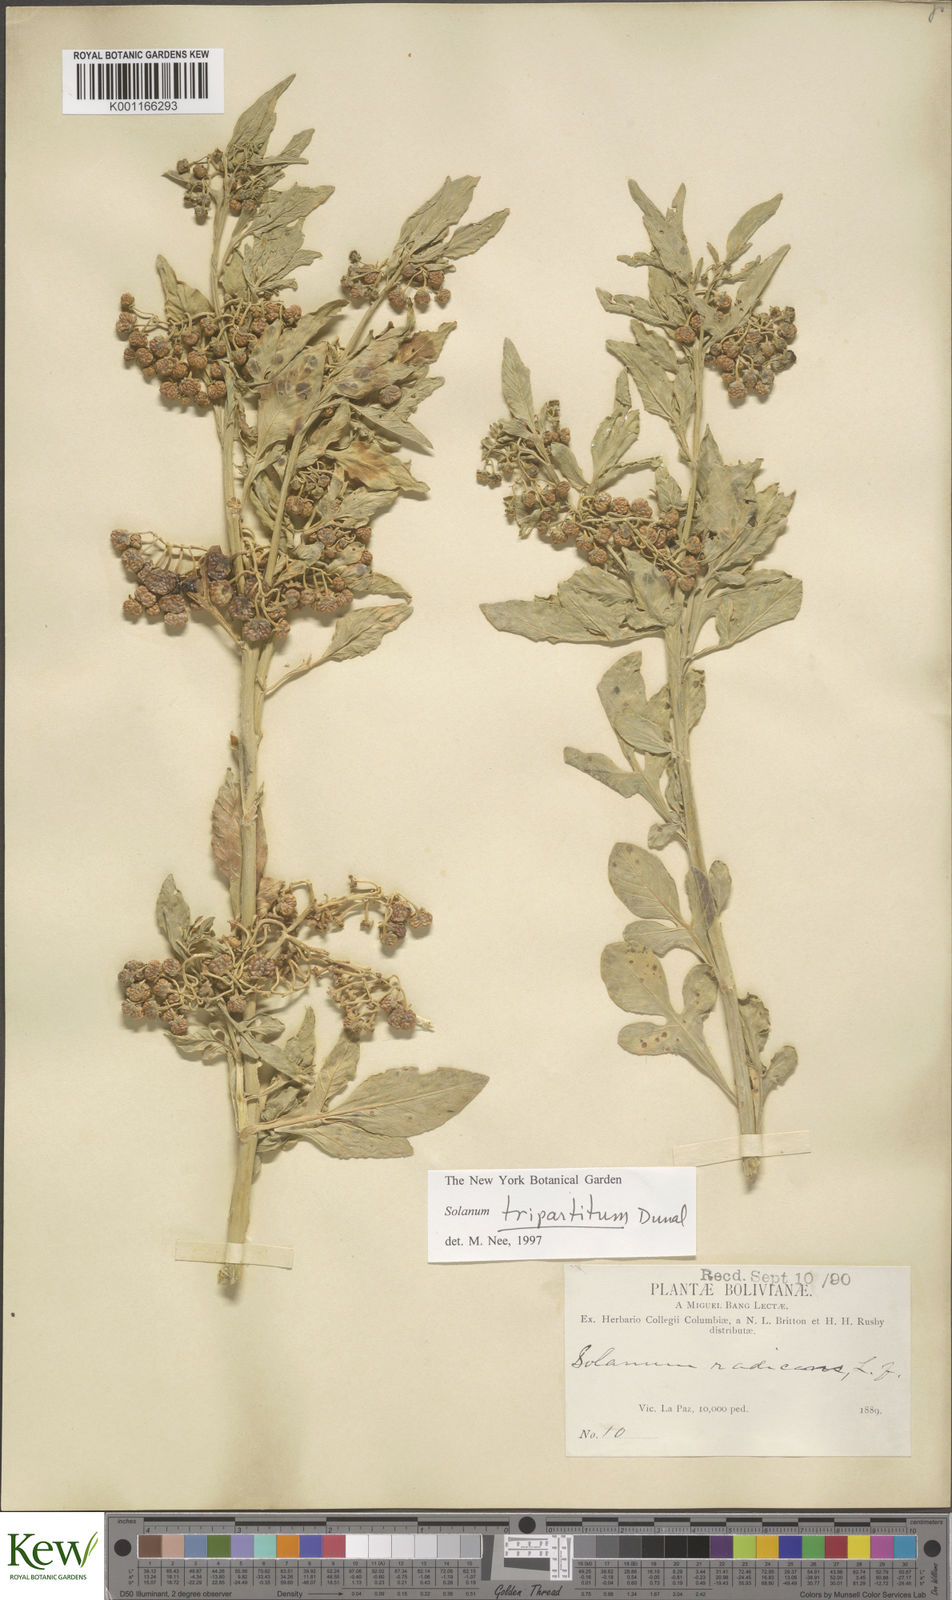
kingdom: Plantae
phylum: Tracheophyta
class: Magnoliopsida
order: Solanales
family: Solanaceae
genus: Solanum
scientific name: Solanum tripartitum
